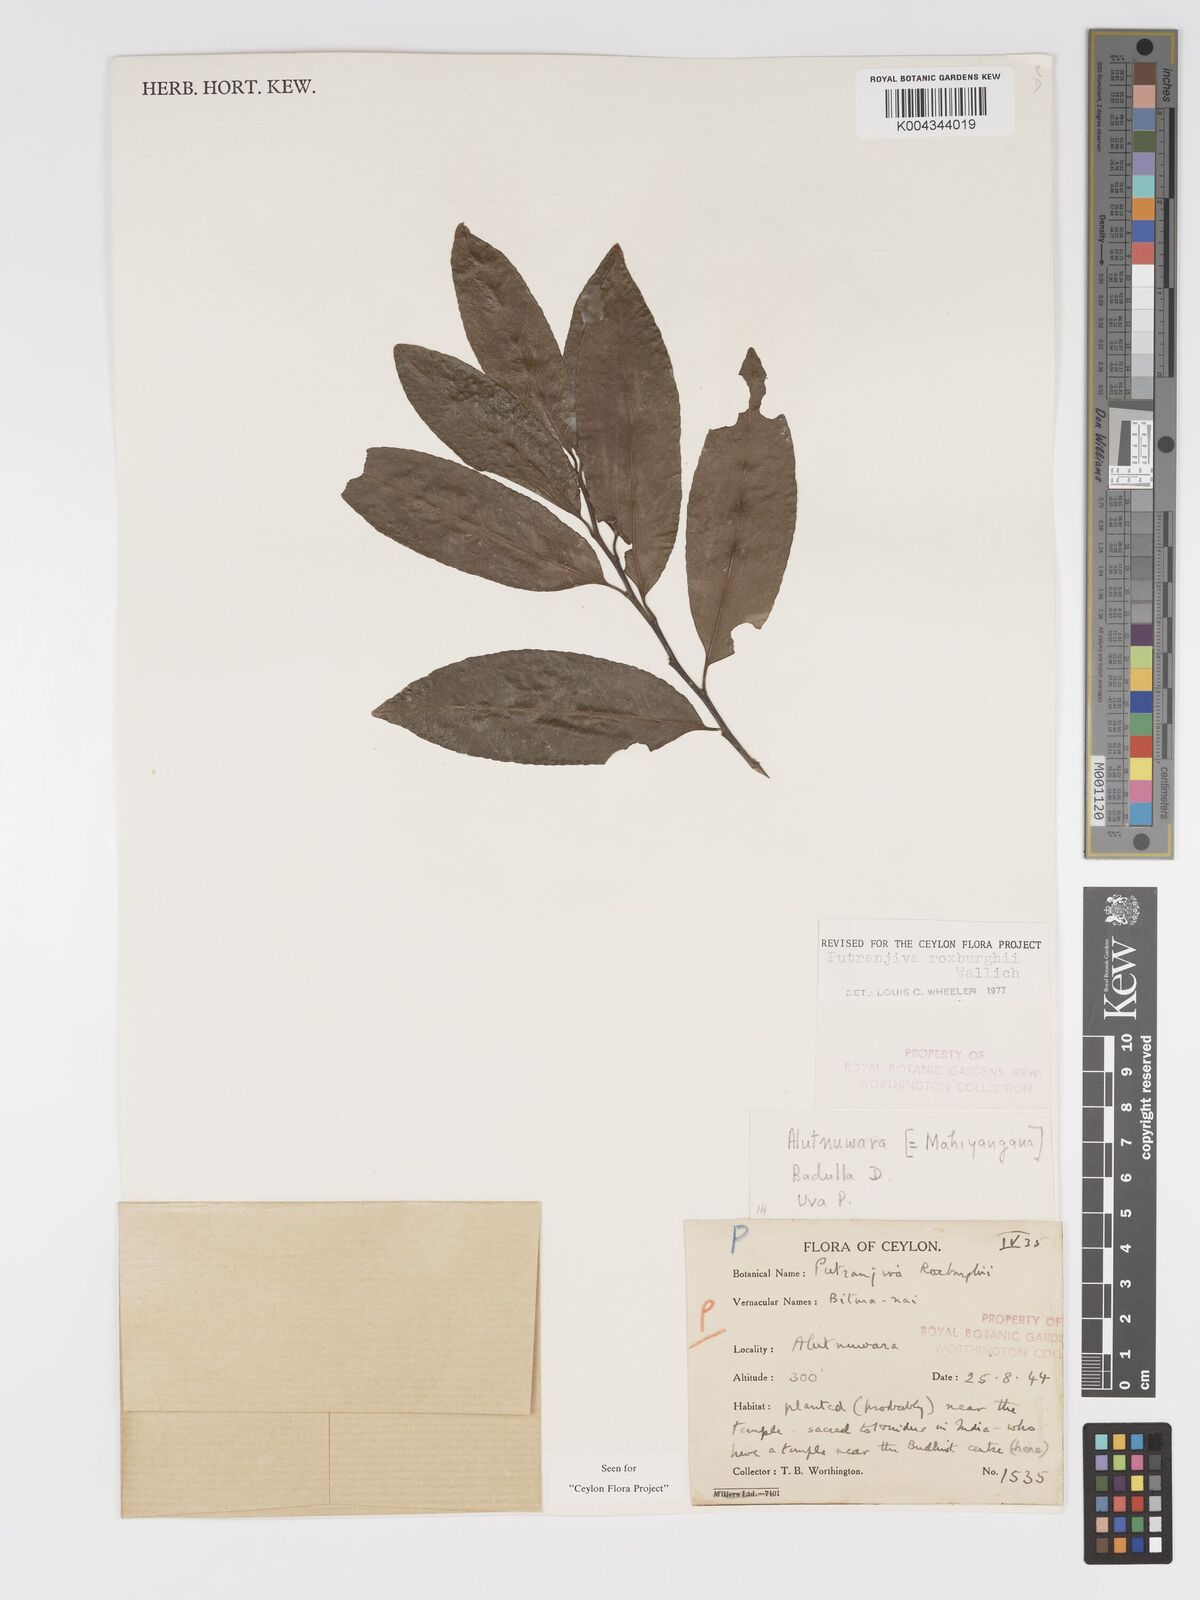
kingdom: Plantae
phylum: Tracheophyta
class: Magnoliopsida
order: Malpighiales
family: Putranjivaceae
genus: Putranjiva
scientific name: Putranjiva roxburghii
